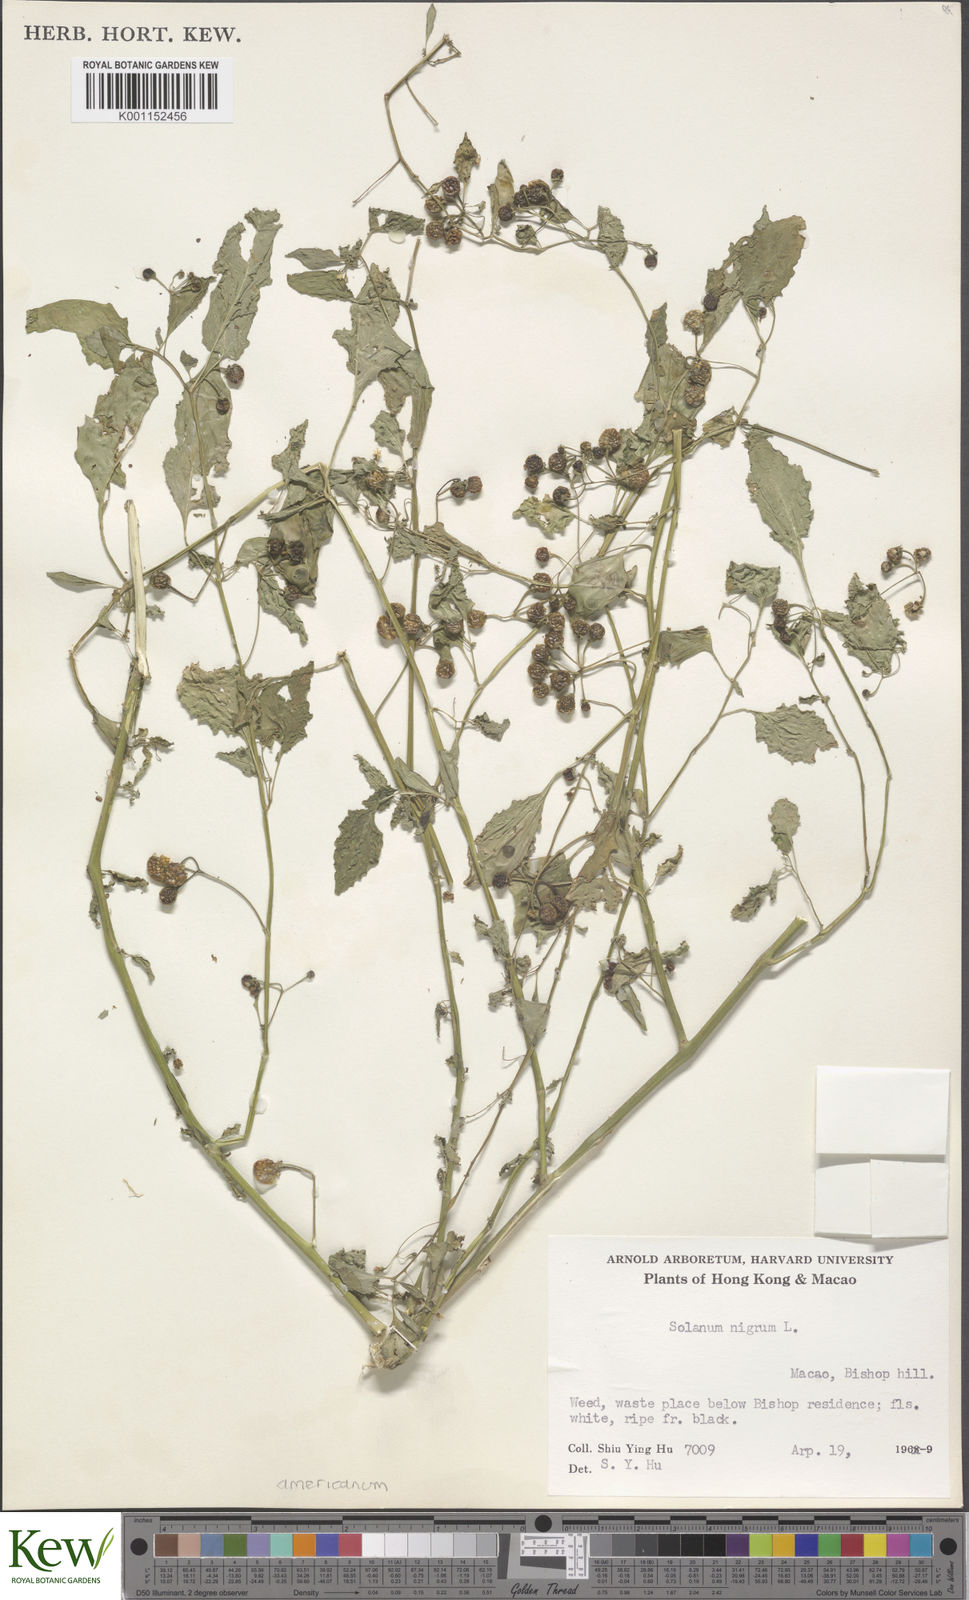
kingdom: Plantae
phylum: Tracheophyta
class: Magnoliopsida
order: Solanales
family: Solanaceae
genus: Solanum
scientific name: Solanum americanum
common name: American black nightshade
